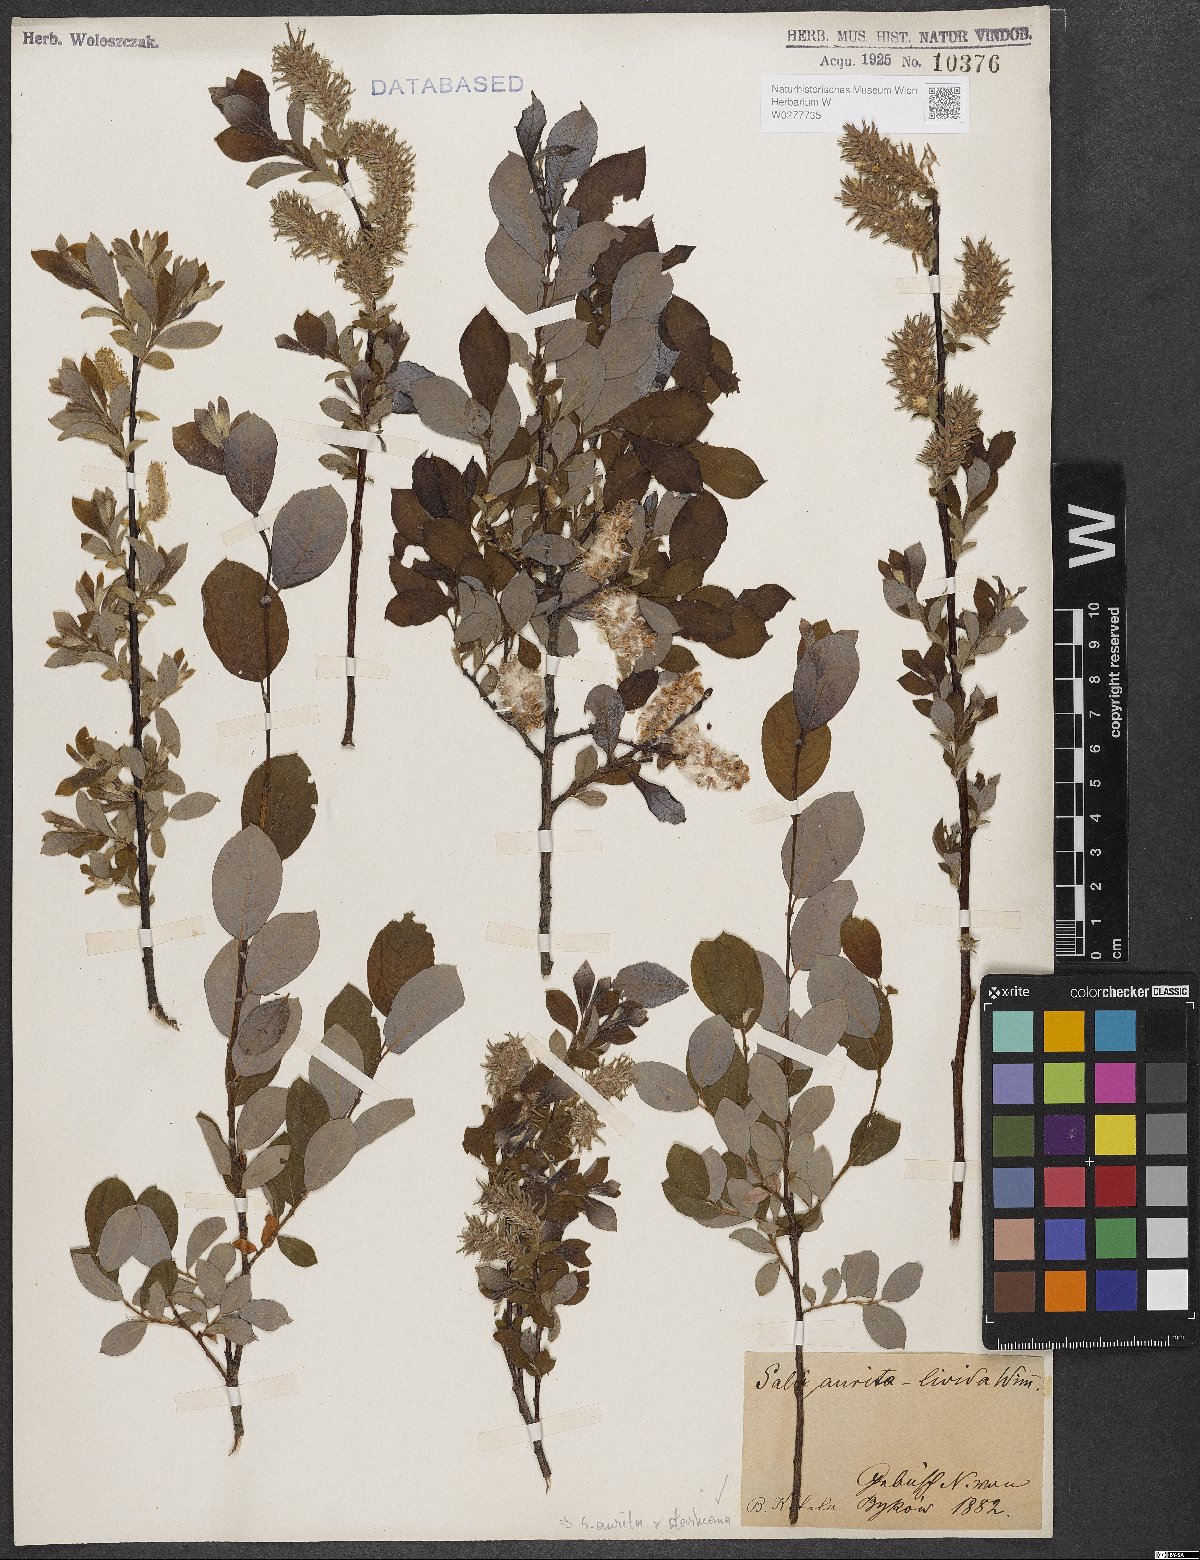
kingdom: Plantae
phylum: Tracheophyta
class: Magnoliopsida
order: Malpighiales
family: Salicaceae
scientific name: Salicaceae
